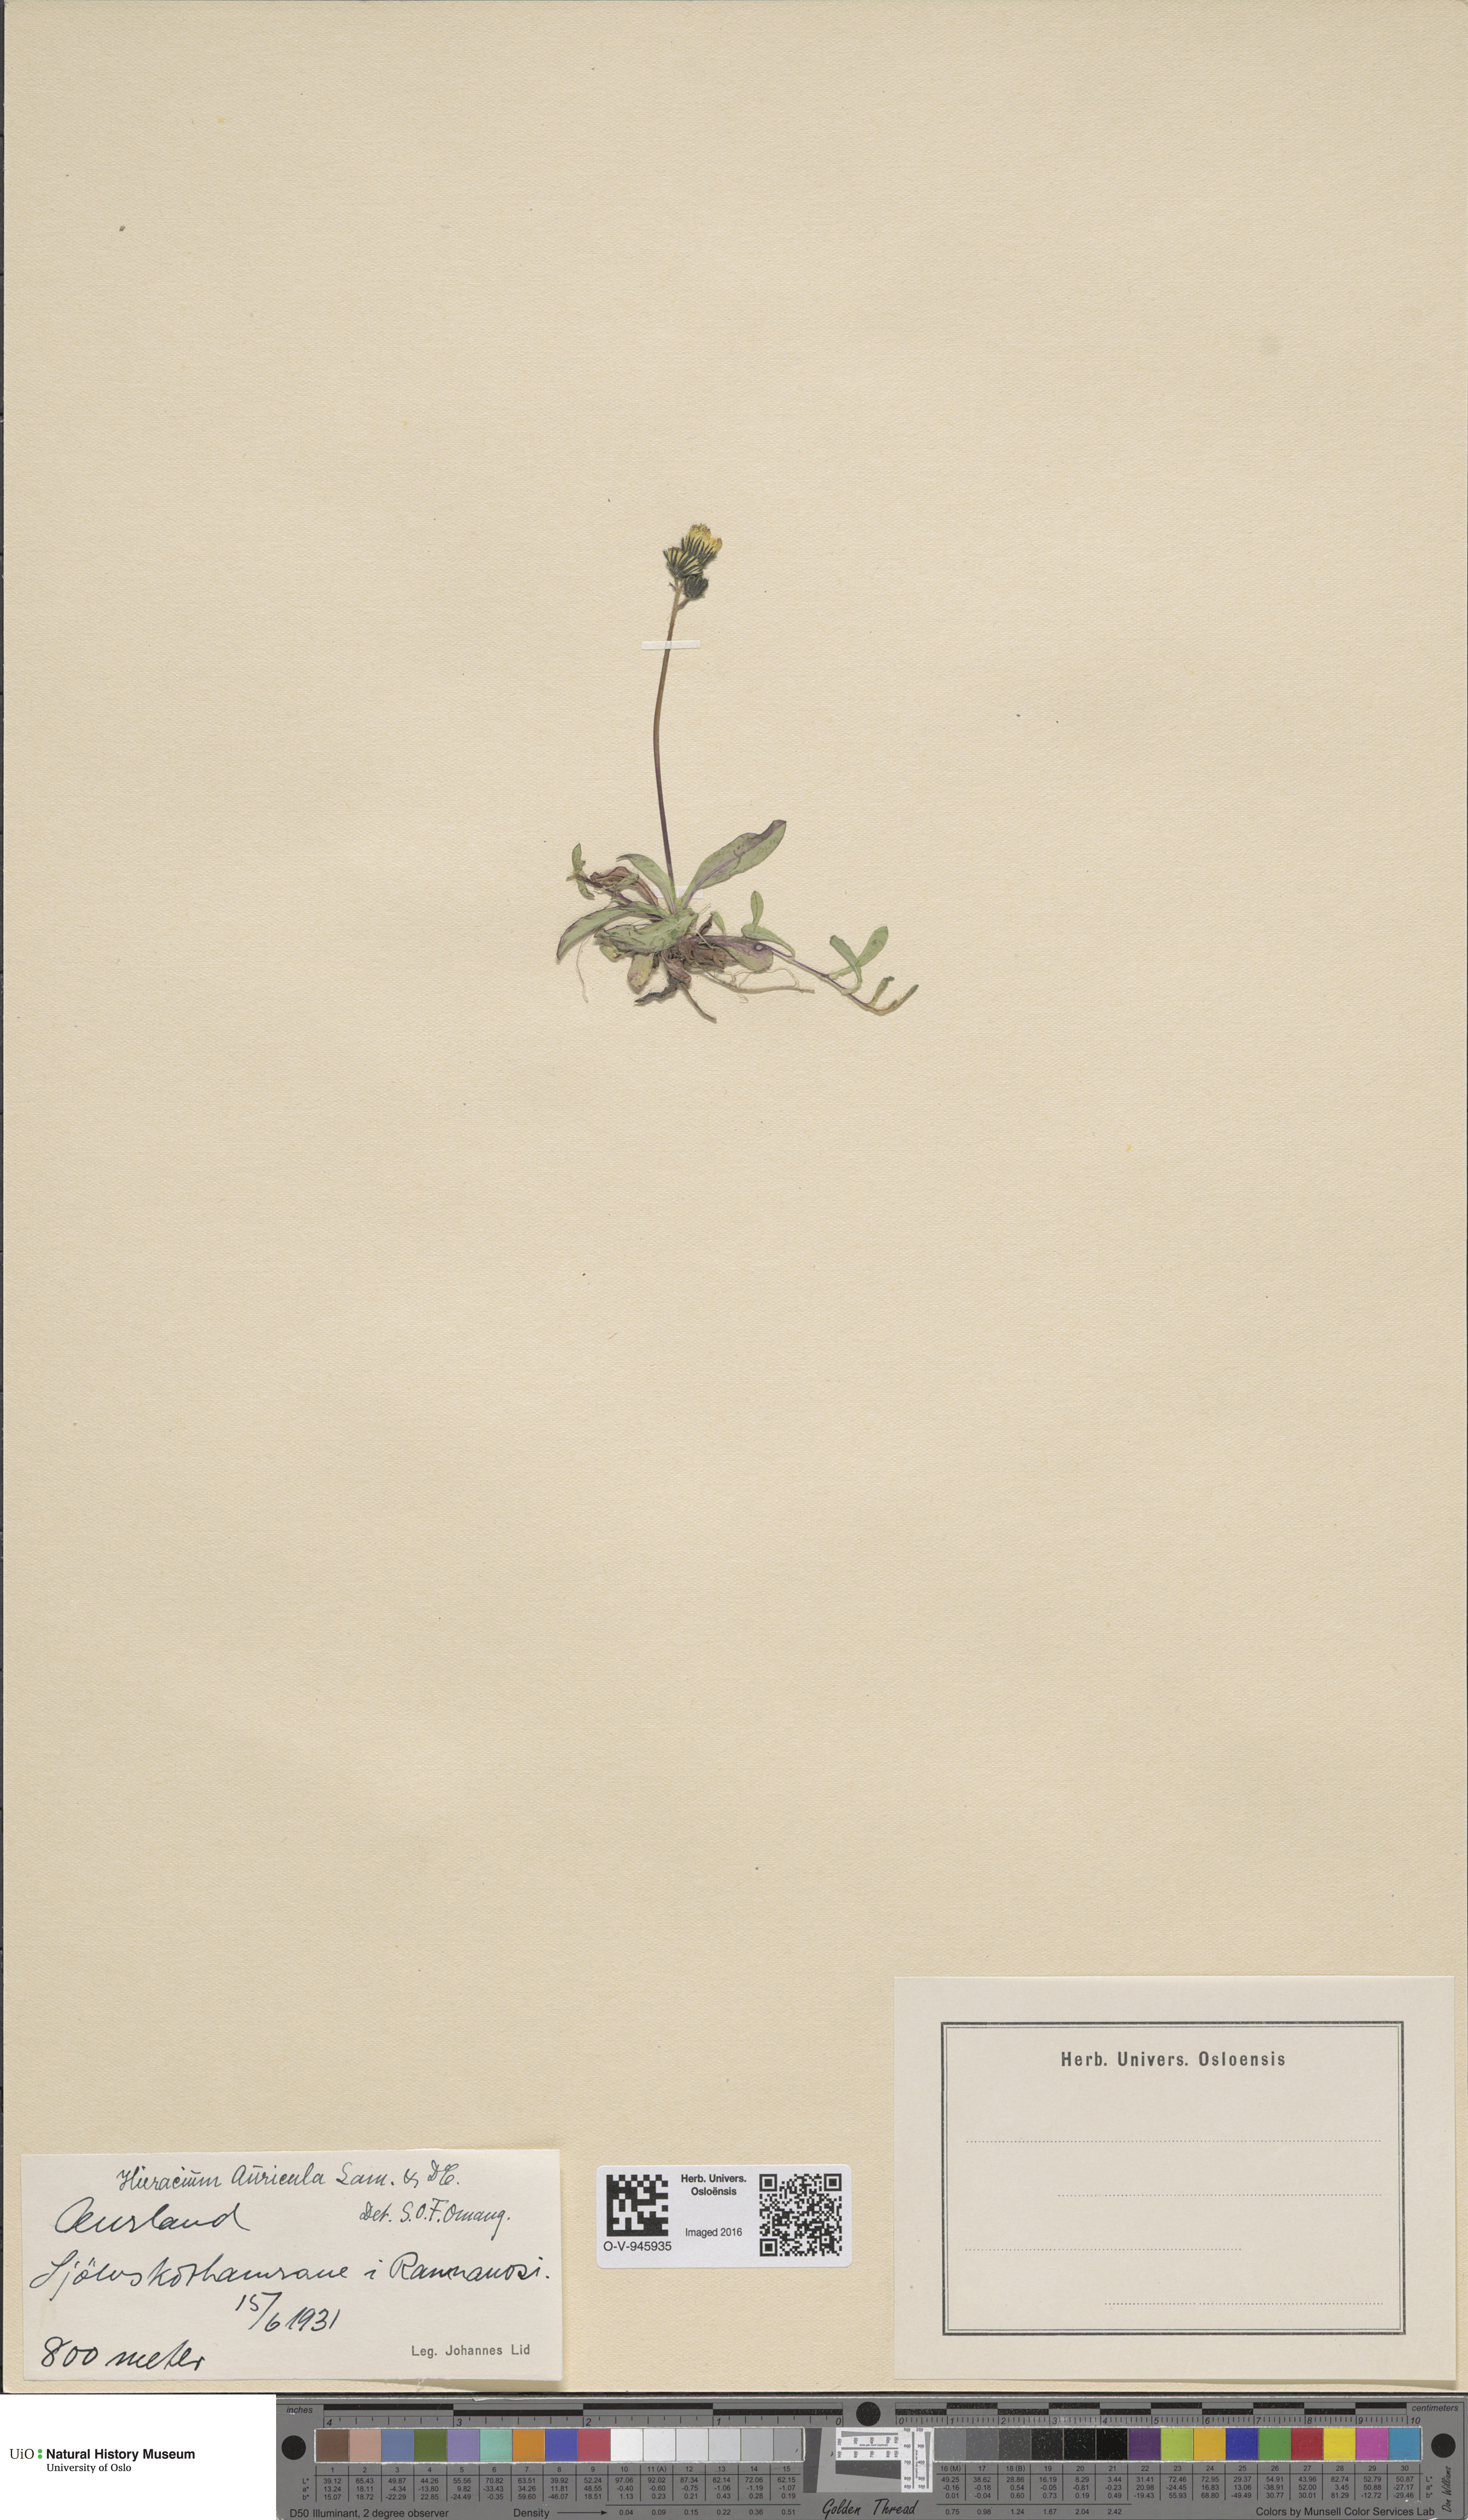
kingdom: Plantae
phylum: Tracheophyta
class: Magnoliopsida
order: Asterales
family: Asteraceae
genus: Pilosella
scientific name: Pilosella lactucella
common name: Glaucous fox-and-cubs
